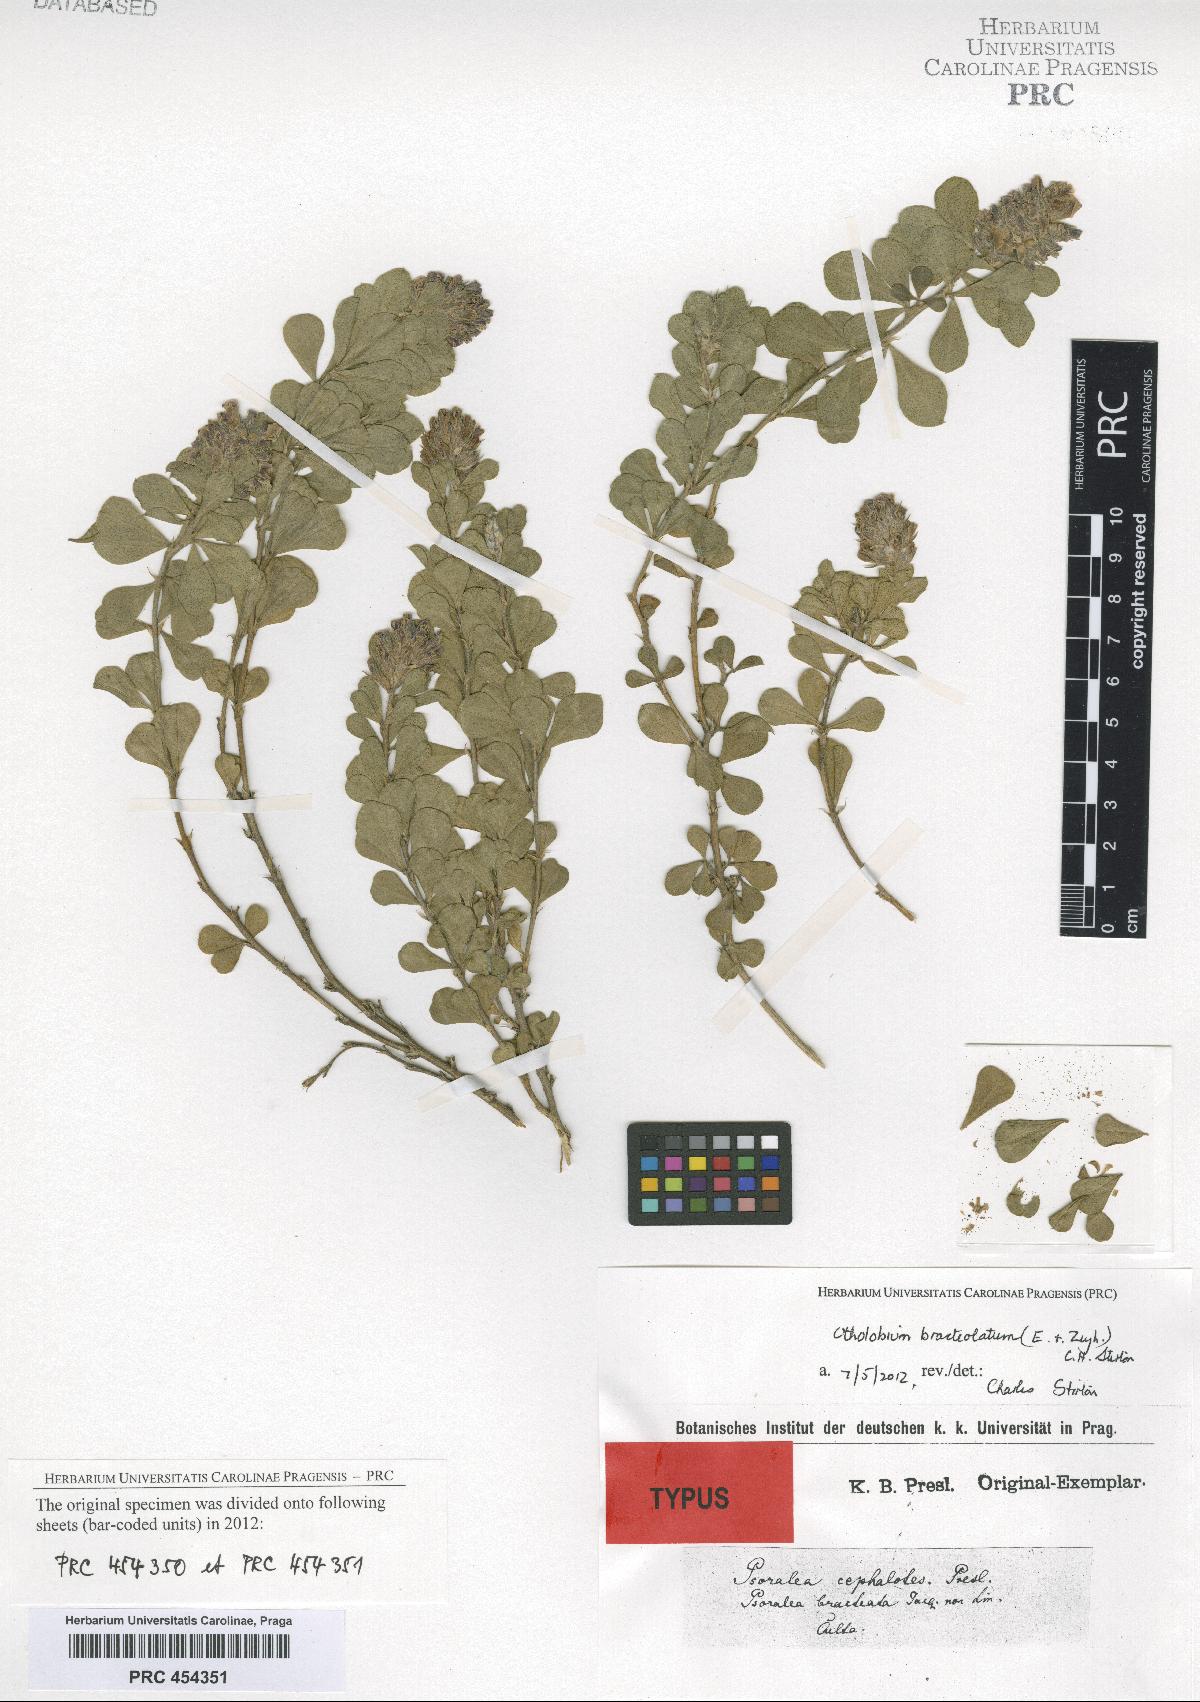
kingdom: Plantae
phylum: Tracheophyta
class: Magnoliopsida
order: Fabales
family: Fabaceae
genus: Psoralea
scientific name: Psoralea fruticans
